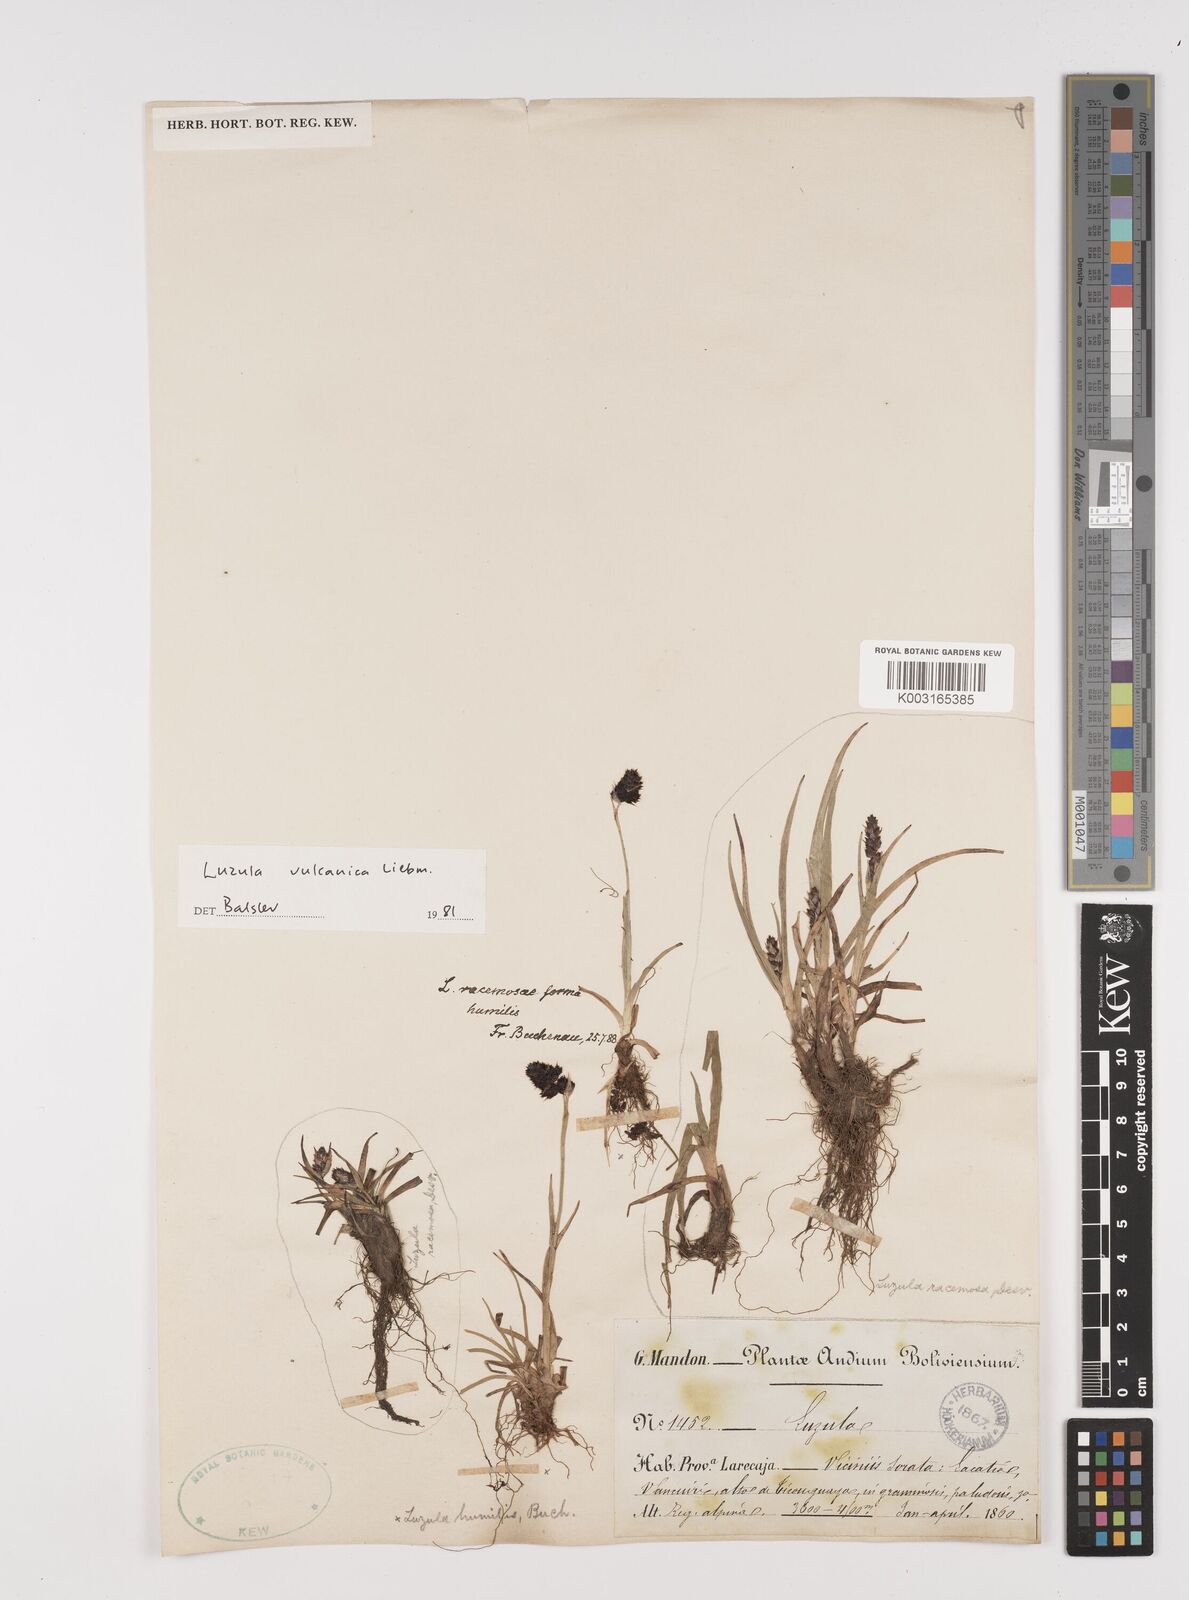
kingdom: Plantae
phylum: Tracheophyta
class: Liliopsida
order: Poales
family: Juncaceae
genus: Luzula
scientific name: Luzula vulcanica
